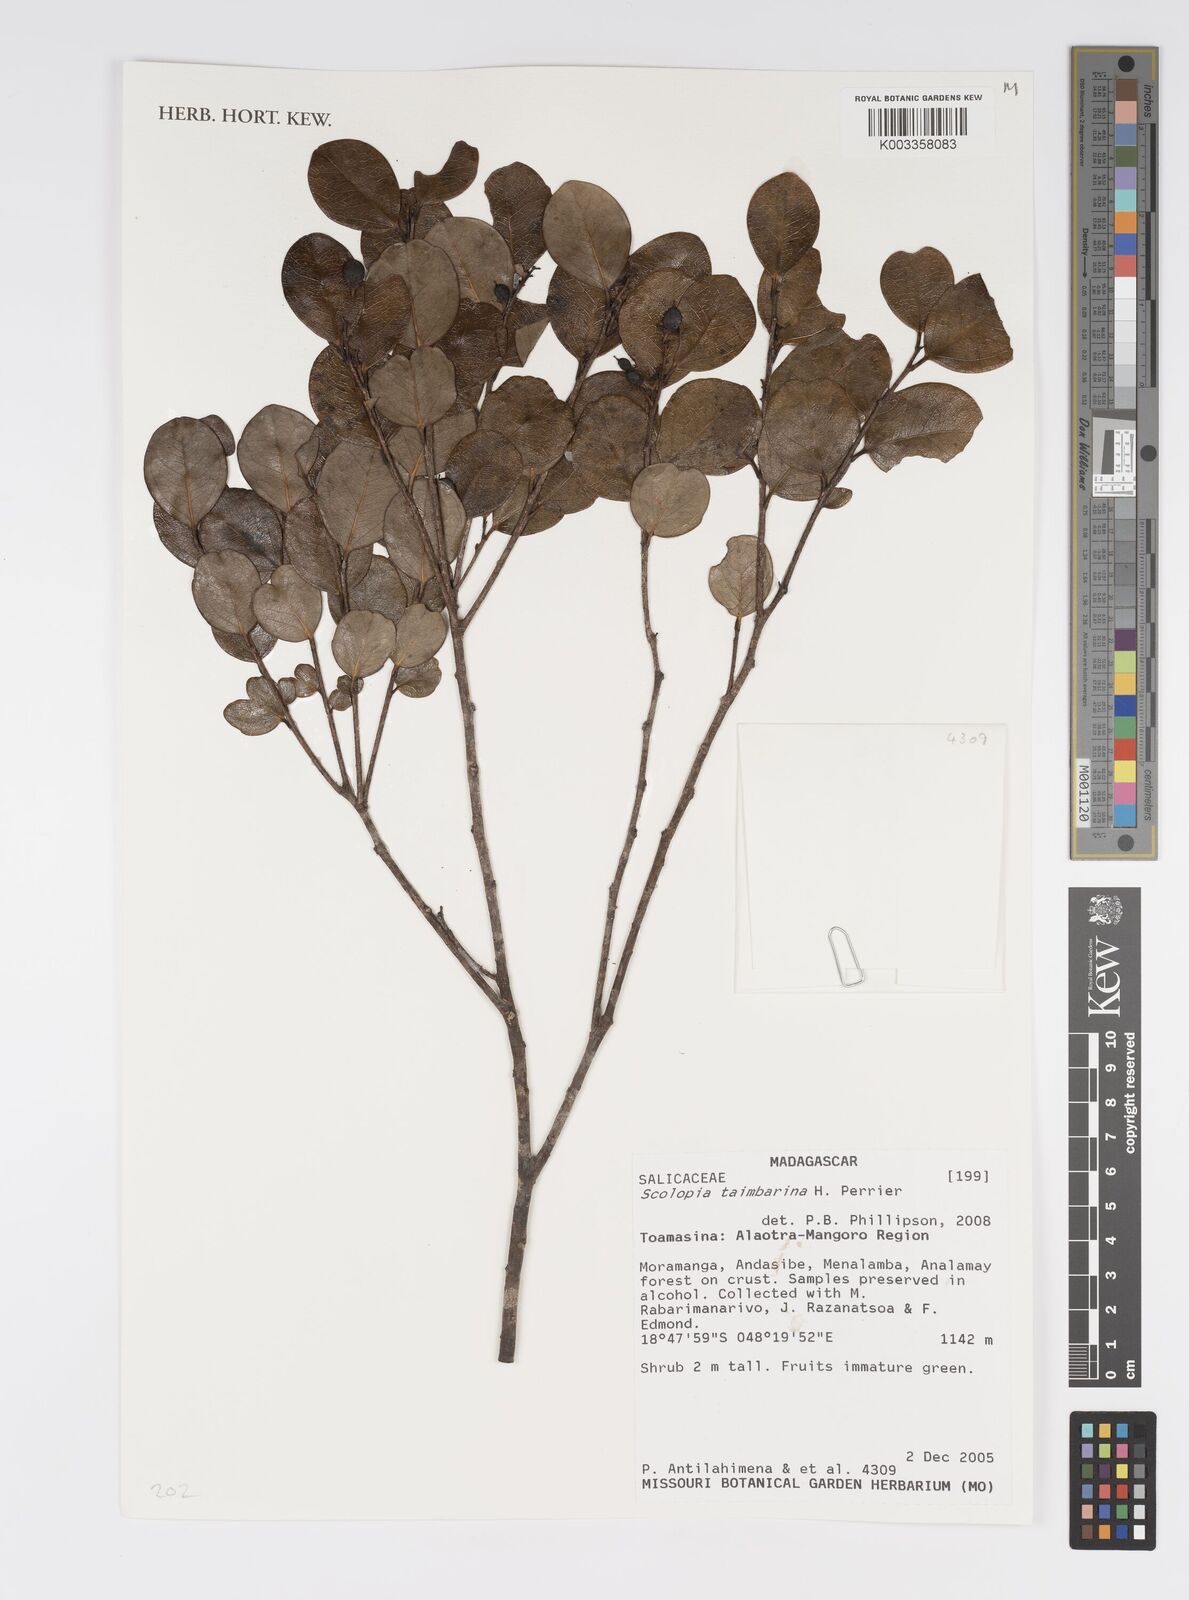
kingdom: Plantae
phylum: Tracheophyta
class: Magnoliopsida
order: Malpighiales
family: Salicaceae
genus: Scolopia
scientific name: Scolopia taimbarina
